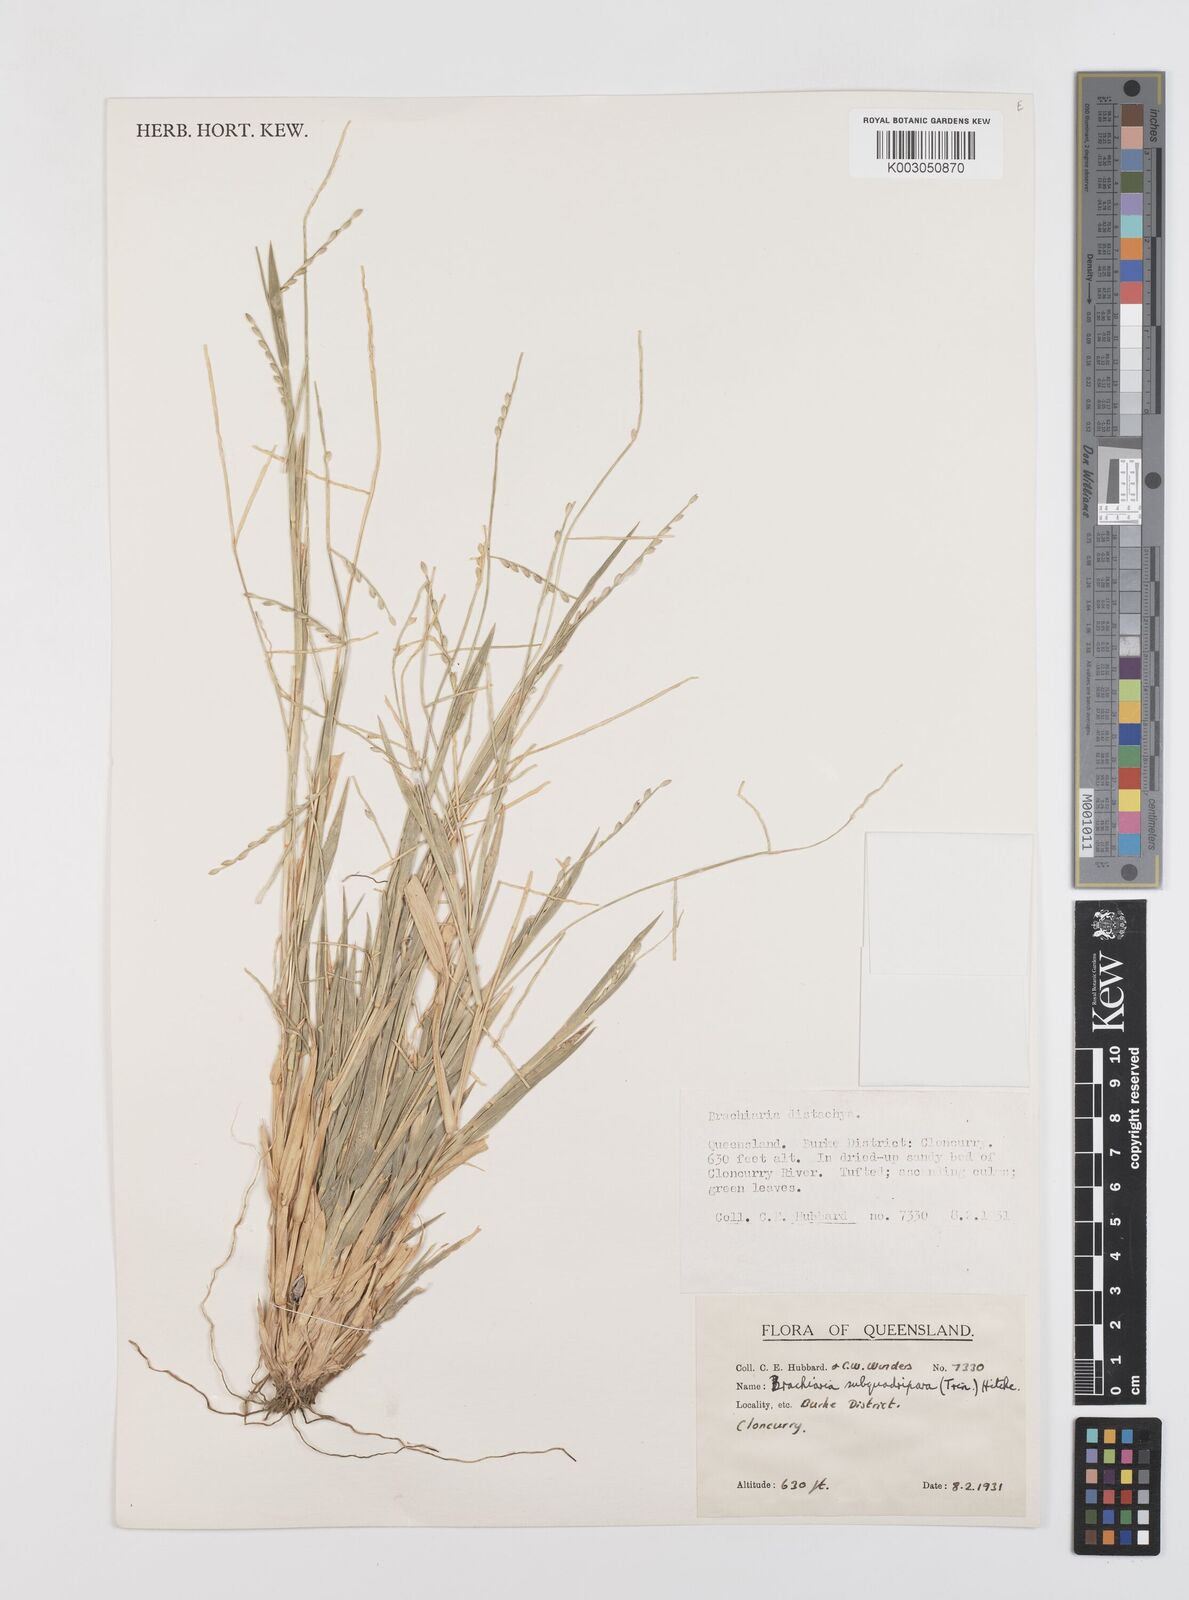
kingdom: Plantae
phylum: Tracheophyta
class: Liliopsida
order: Poales
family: Poaceae
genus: Urochloa
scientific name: Urochloa subquadripara
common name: Armgrass millet
